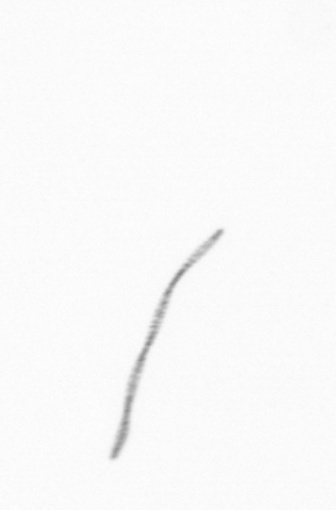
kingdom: Chromista
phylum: Ochrophyta
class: Bacillariophyceae
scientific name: Bacillariophyceae
